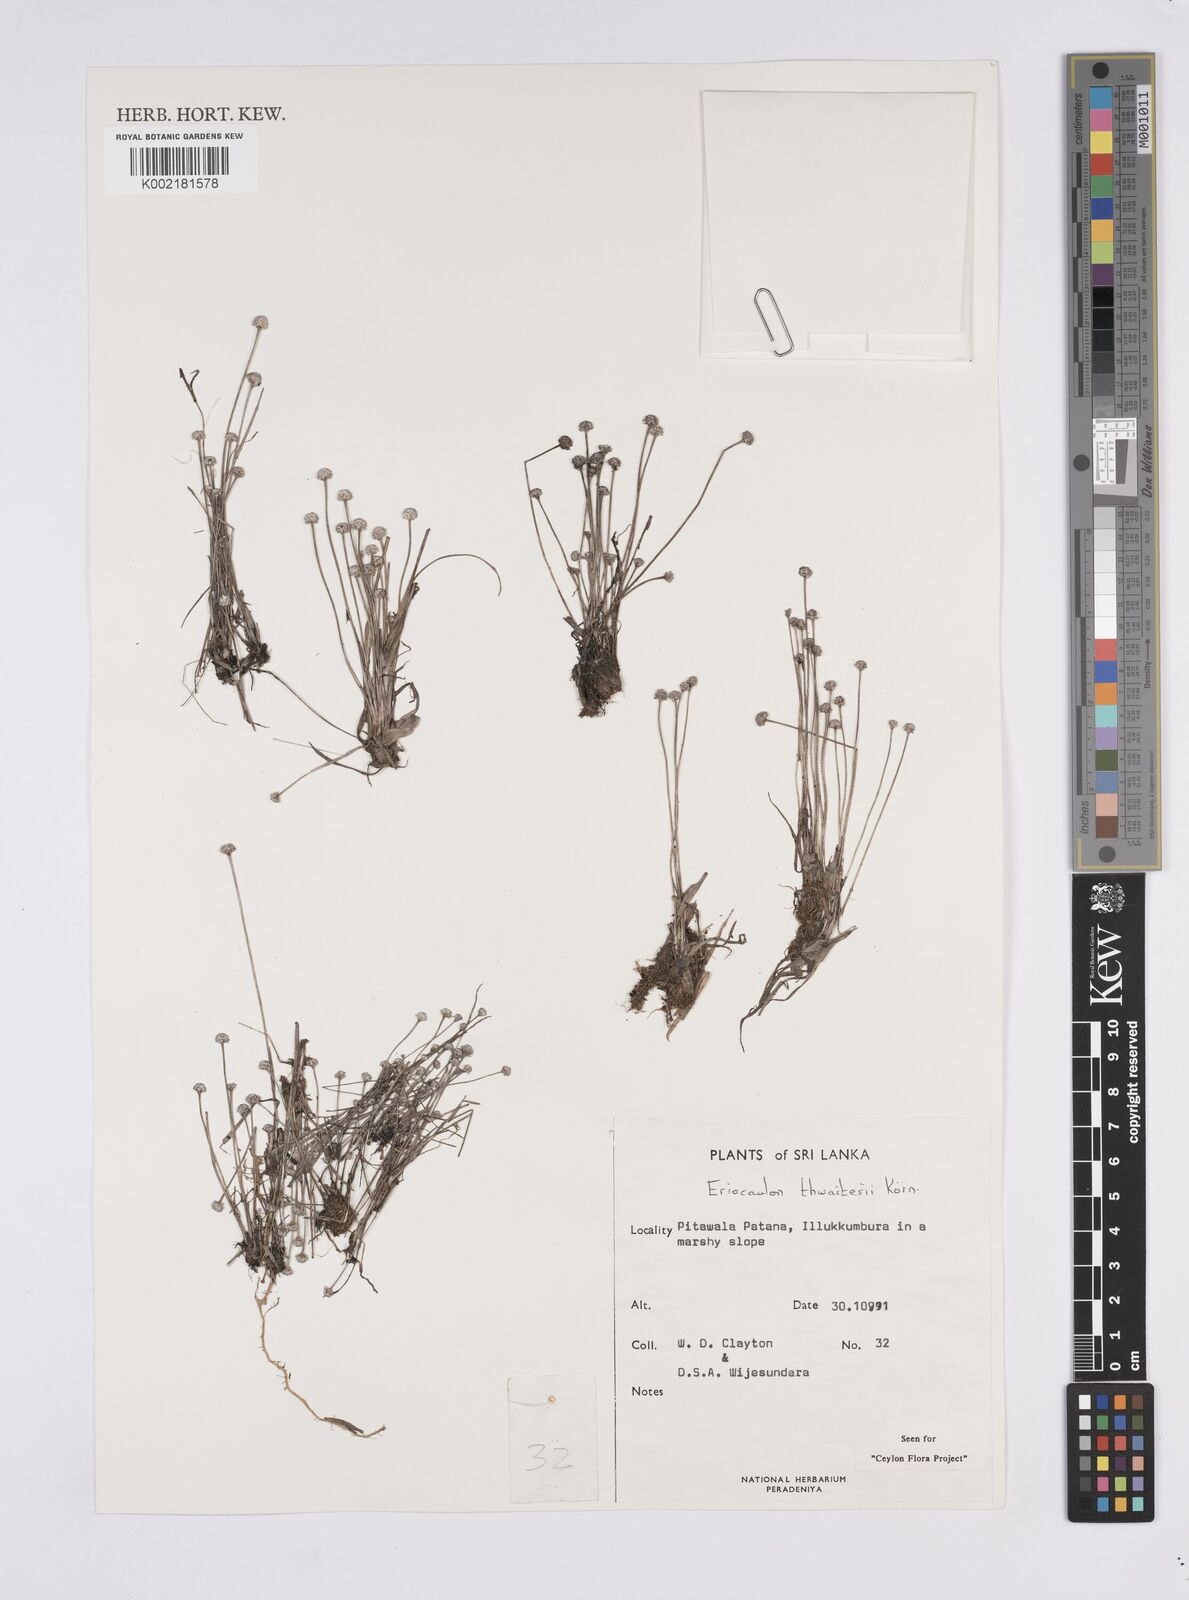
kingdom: Plantae
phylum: Tracheophyta
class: Liliopsida
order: Poales
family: Eriocaulaceae
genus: Eriocaulon
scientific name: Eriocaulon thwaitesii
